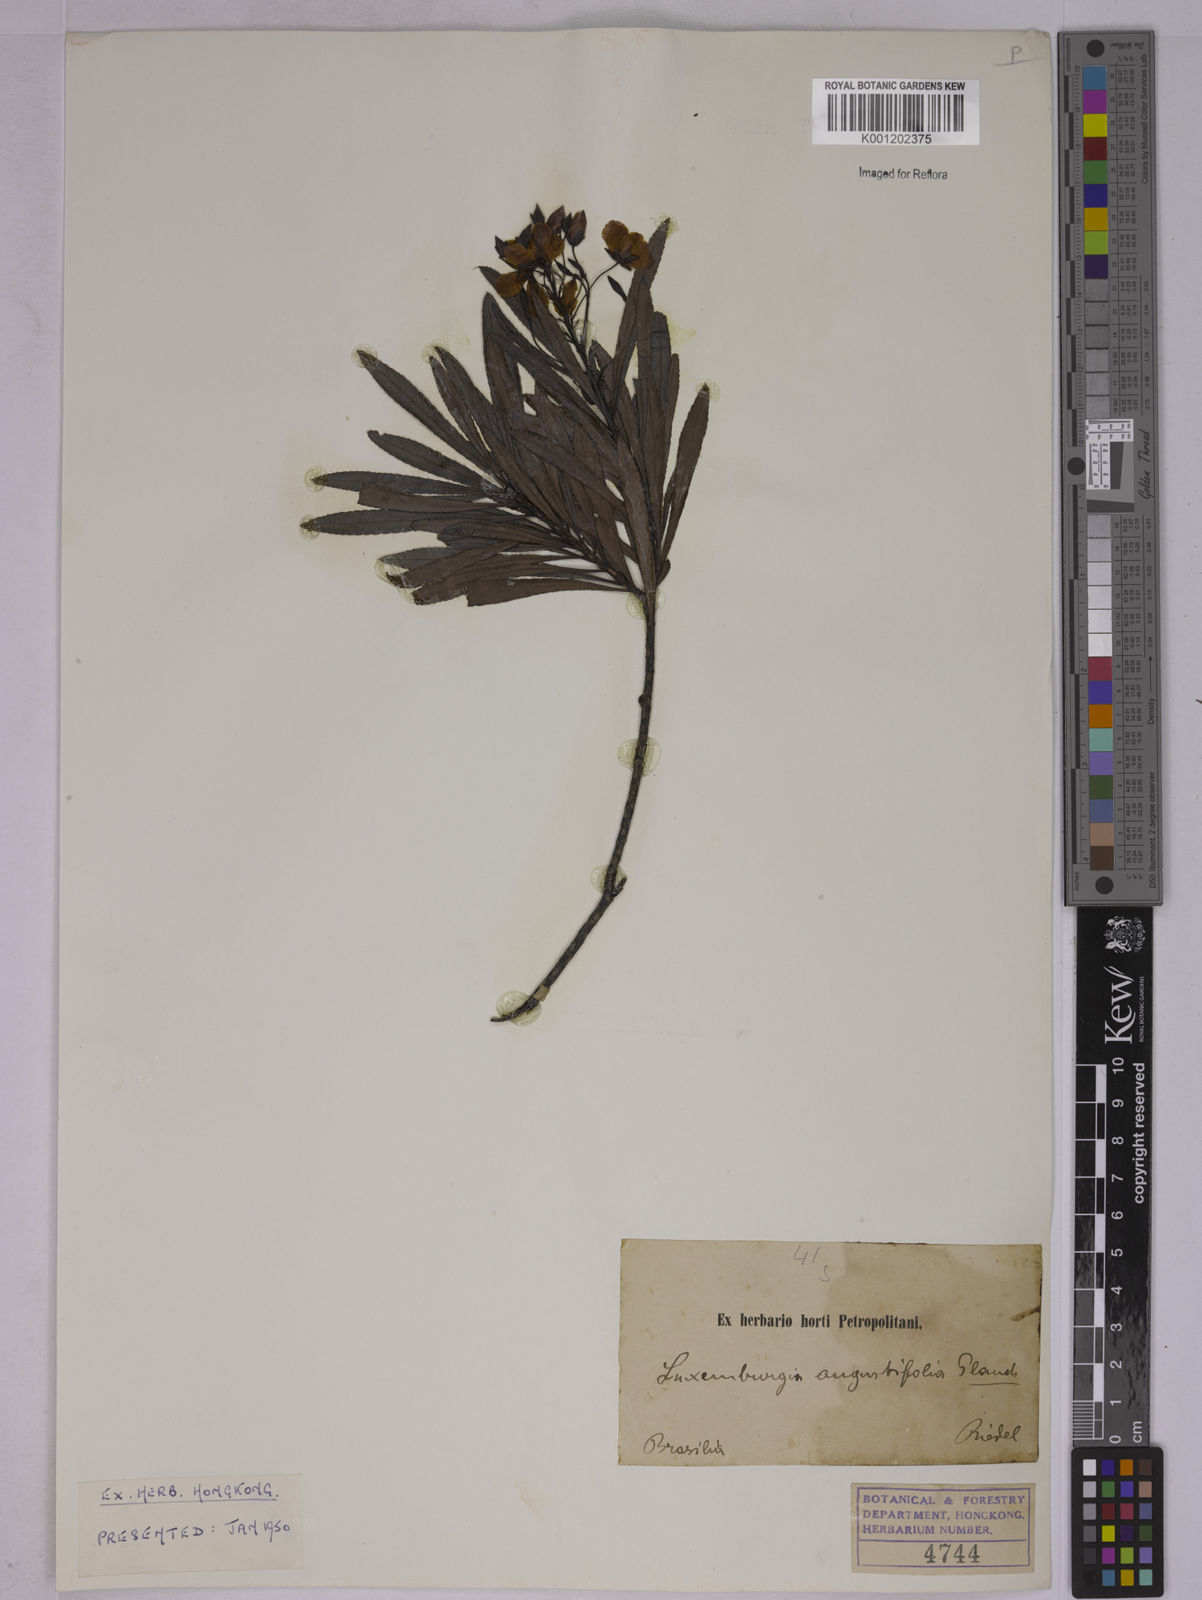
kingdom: Plantae
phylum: Tracheophyta
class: Magnoliopsida
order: Malpighiales
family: Ochnaceae
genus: Luxemburgia
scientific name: Luxemburgia angustifolia
